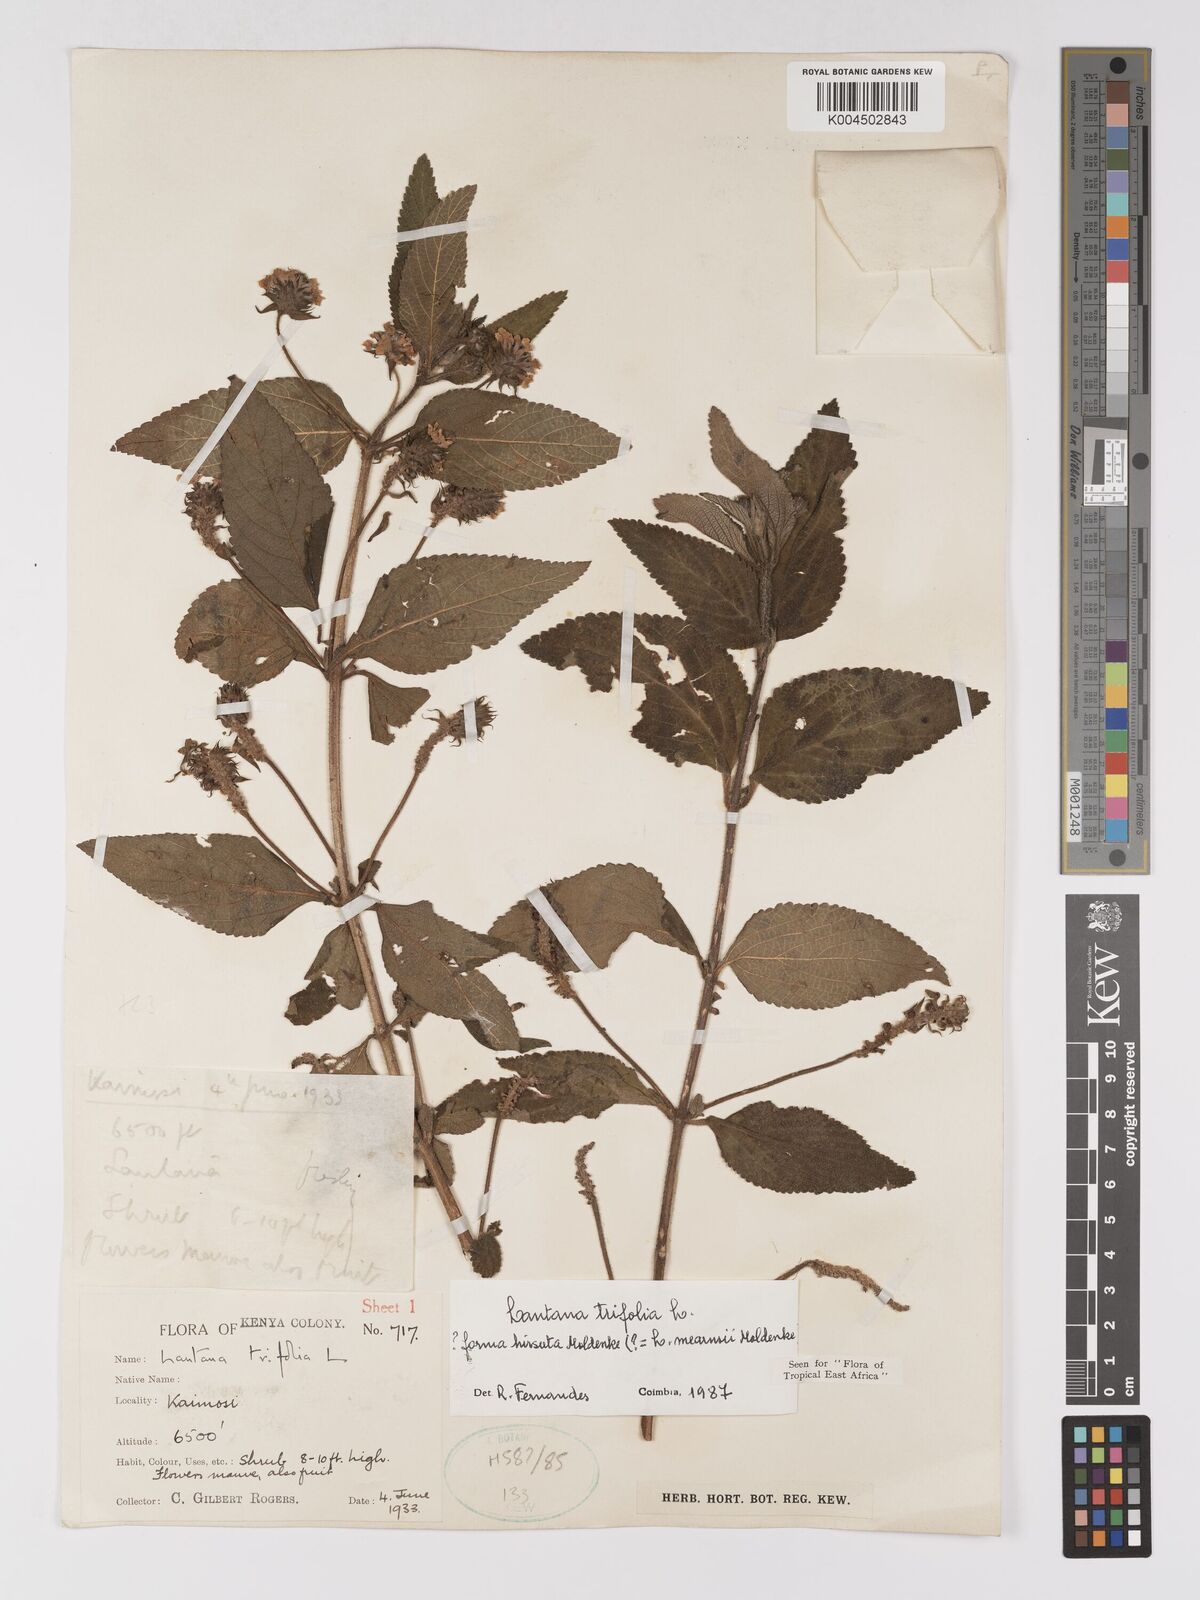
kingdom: Plantae
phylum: Tracheophyta
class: Magnoliopsida
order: Lamiales
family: Verbenaceae
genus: Lantana
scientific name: Lantana trifolia
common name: Sweet-sage
